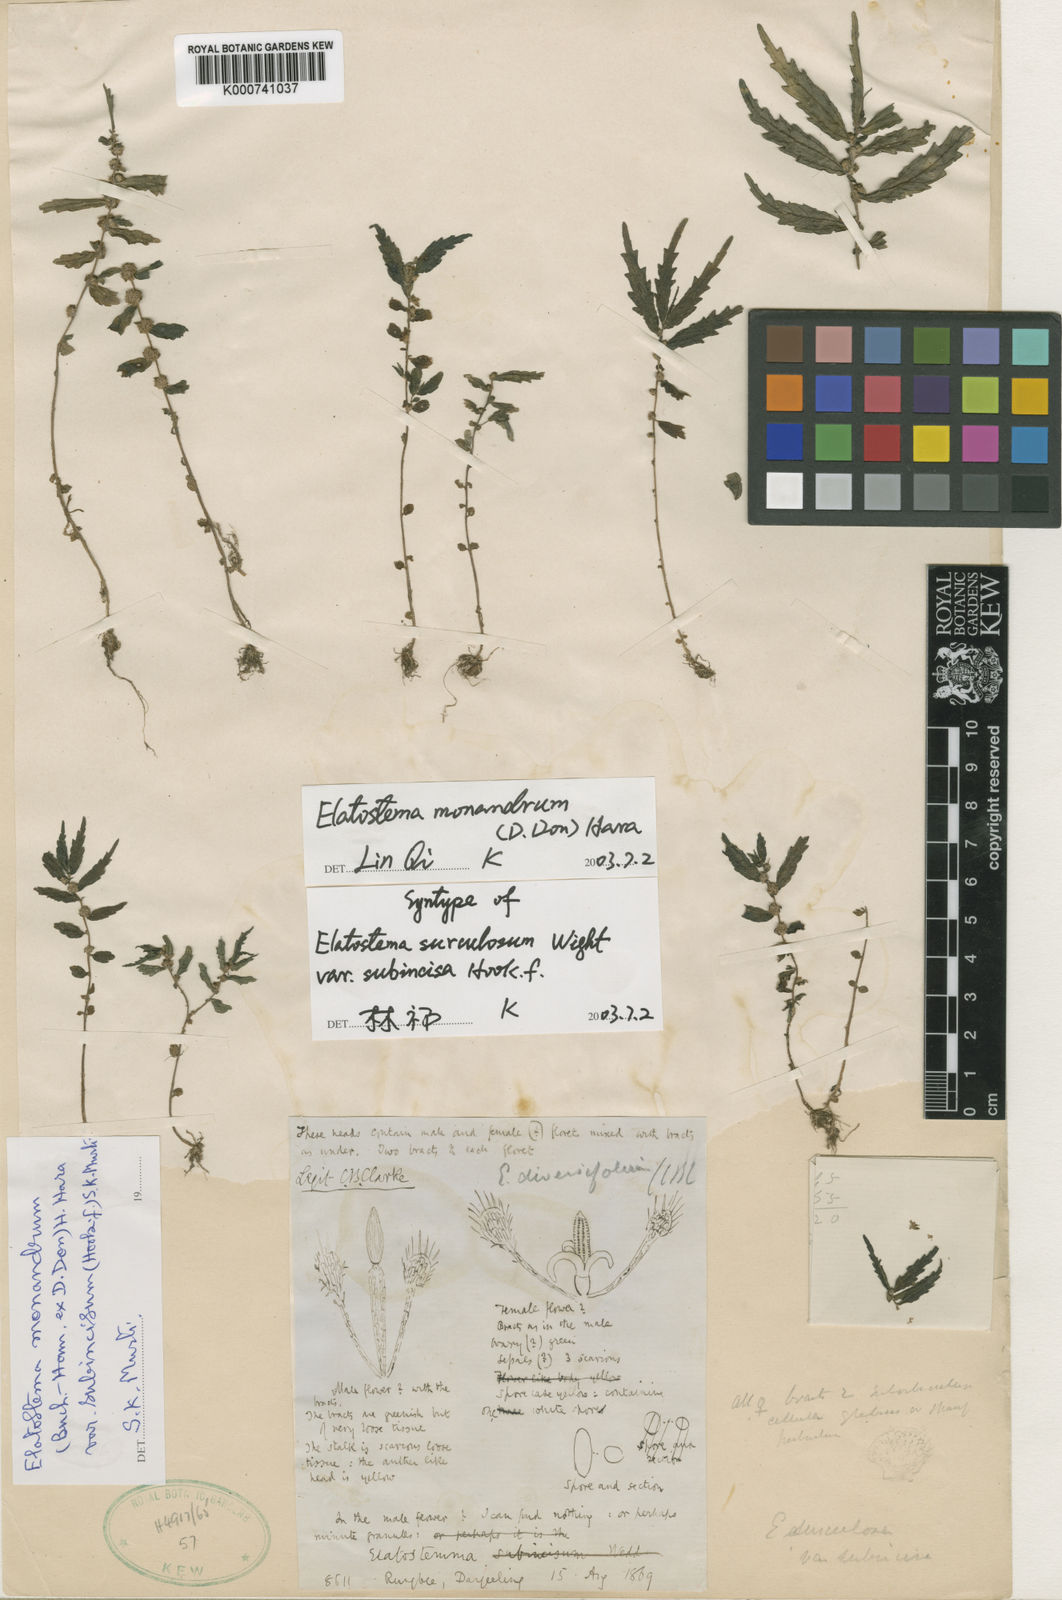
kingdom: Plantae
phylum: Tracheophyta
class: Magnoliopsida
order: Rosales
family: Urticaceae
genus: Elatostema
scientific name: Elatostema monandrum
